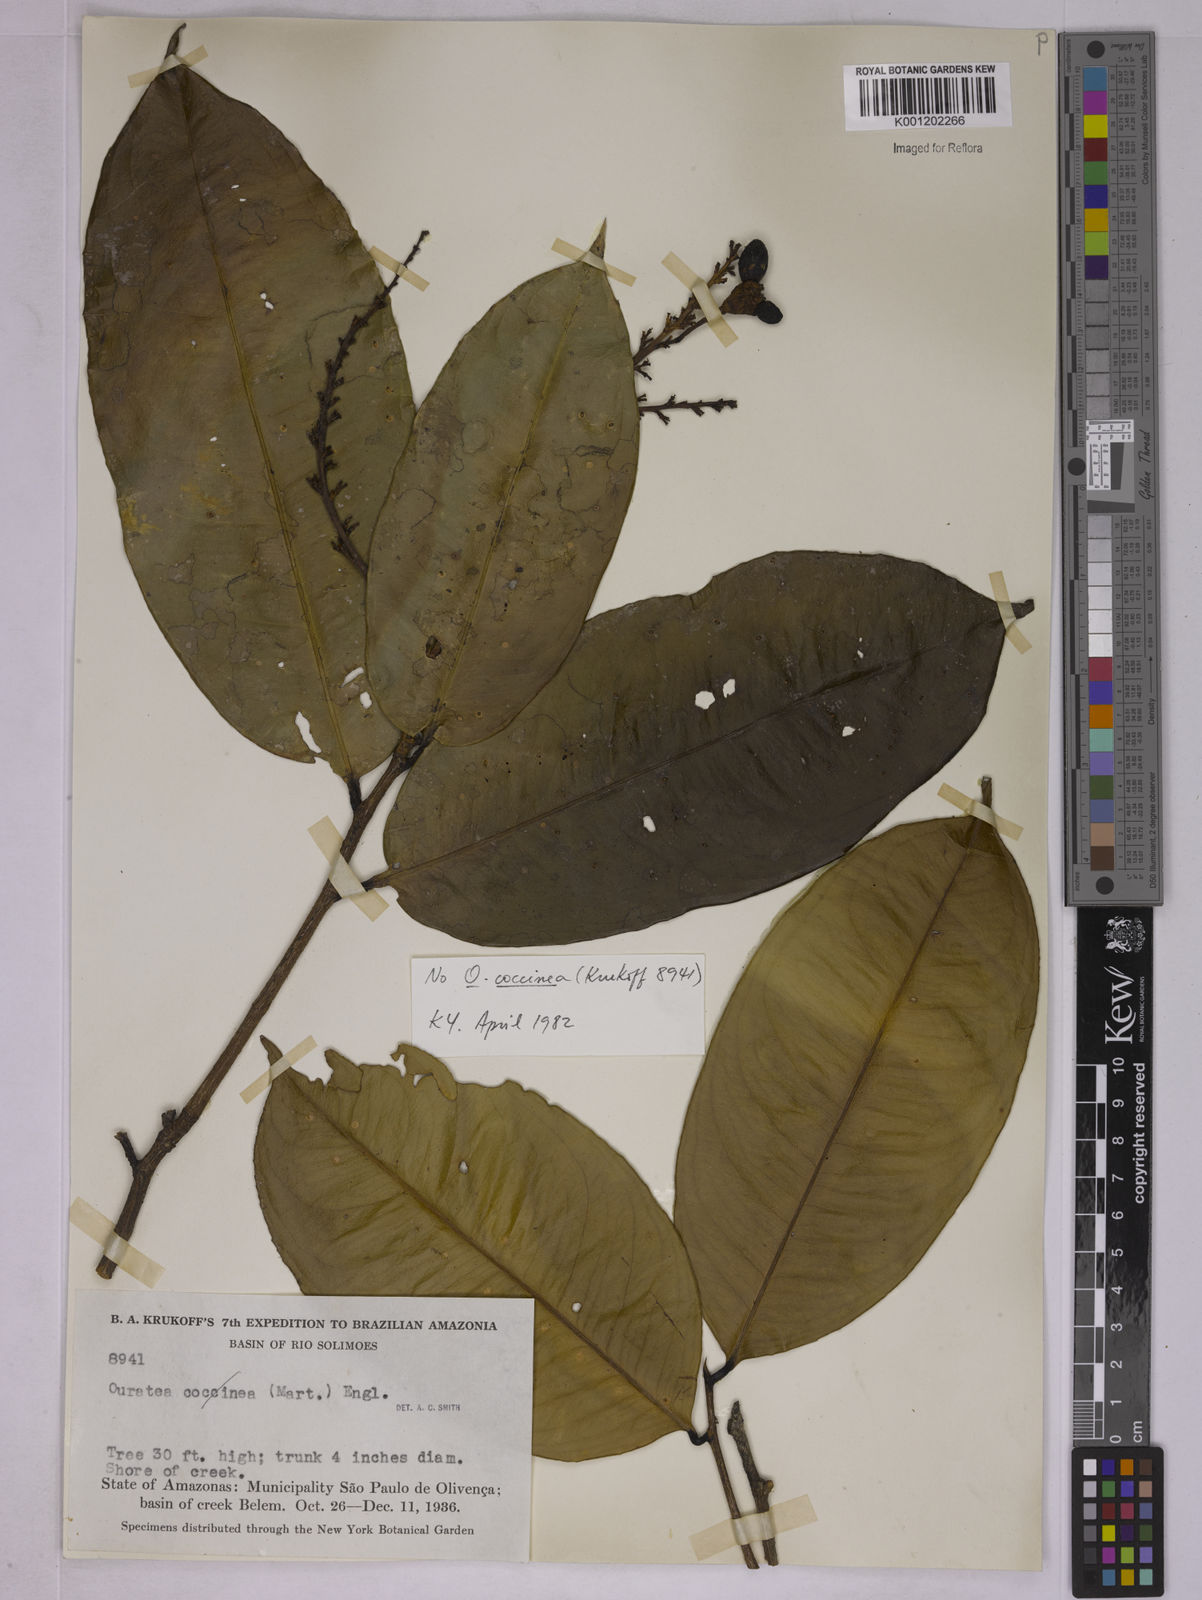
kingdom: Plantae
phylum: Tracheophyta
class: Magnoliopsida
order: Malpighiales
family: Ochnaceae
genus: Ouratea
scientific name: Ouratea
